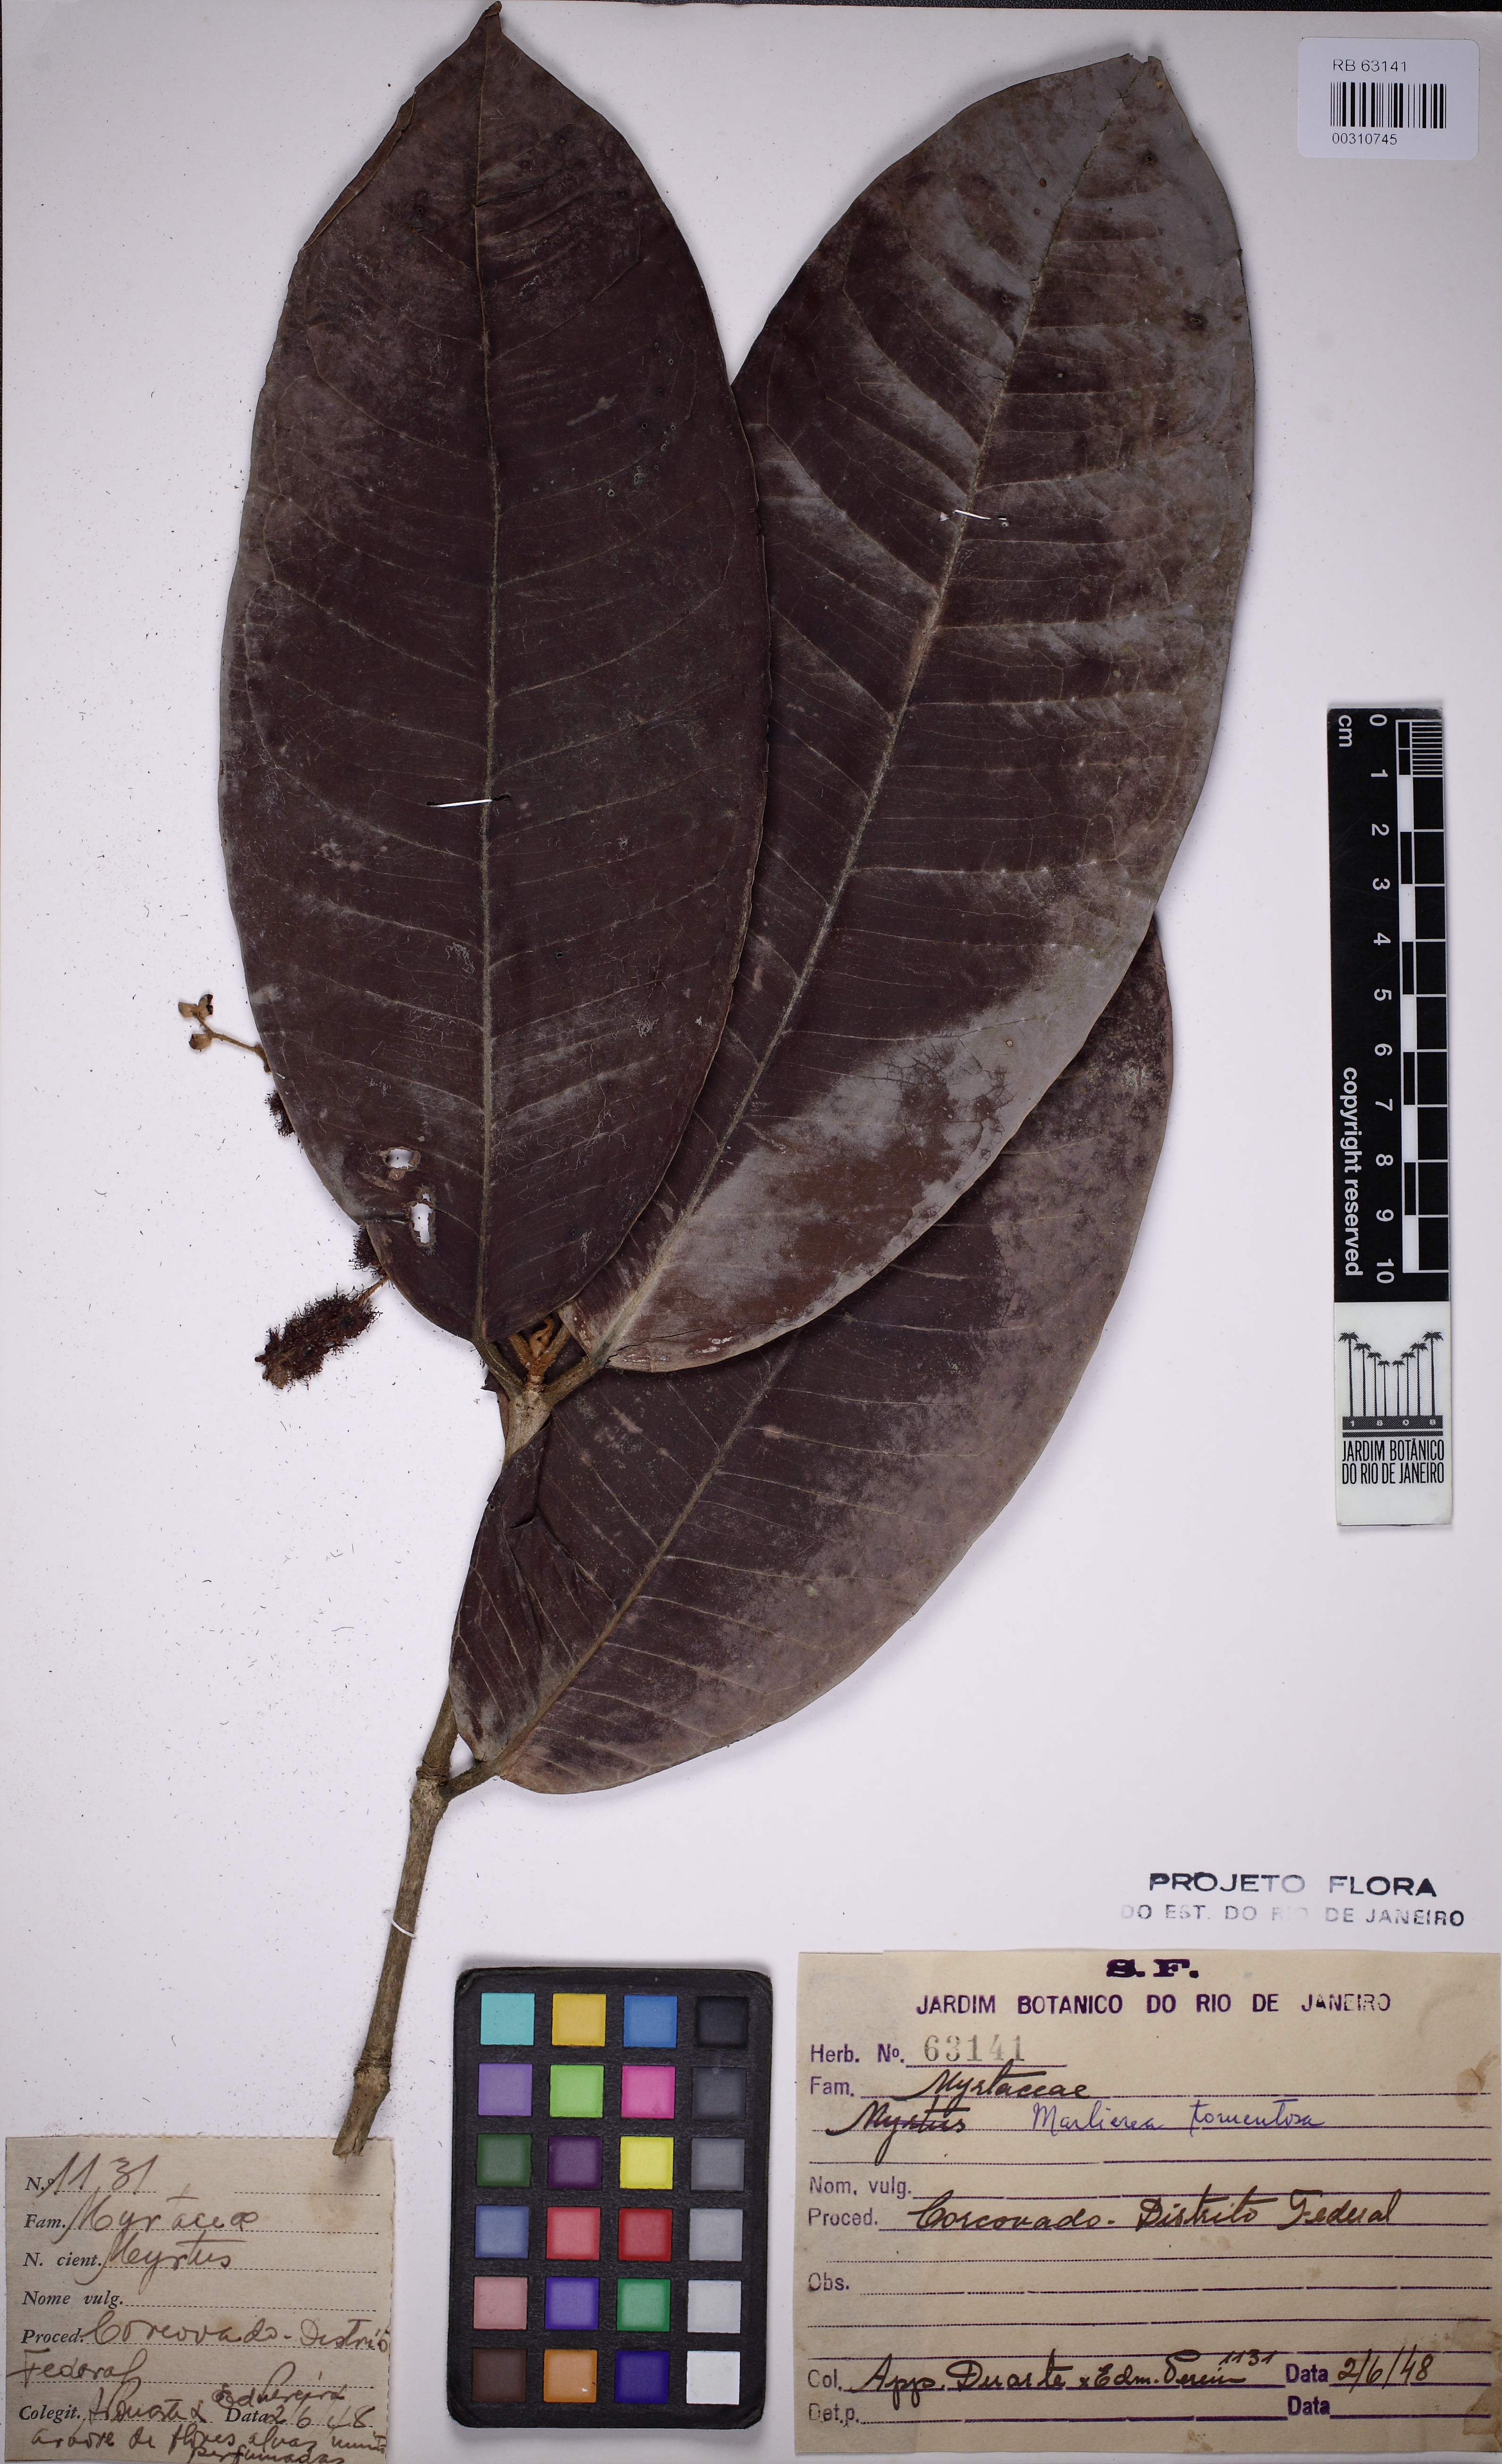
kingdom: Plantae
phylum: Tracheophyta
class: Magnoliopsida
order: Myrtales
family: Myrtaceae
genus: Myrcia
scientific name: Myrcia neotomentosa
